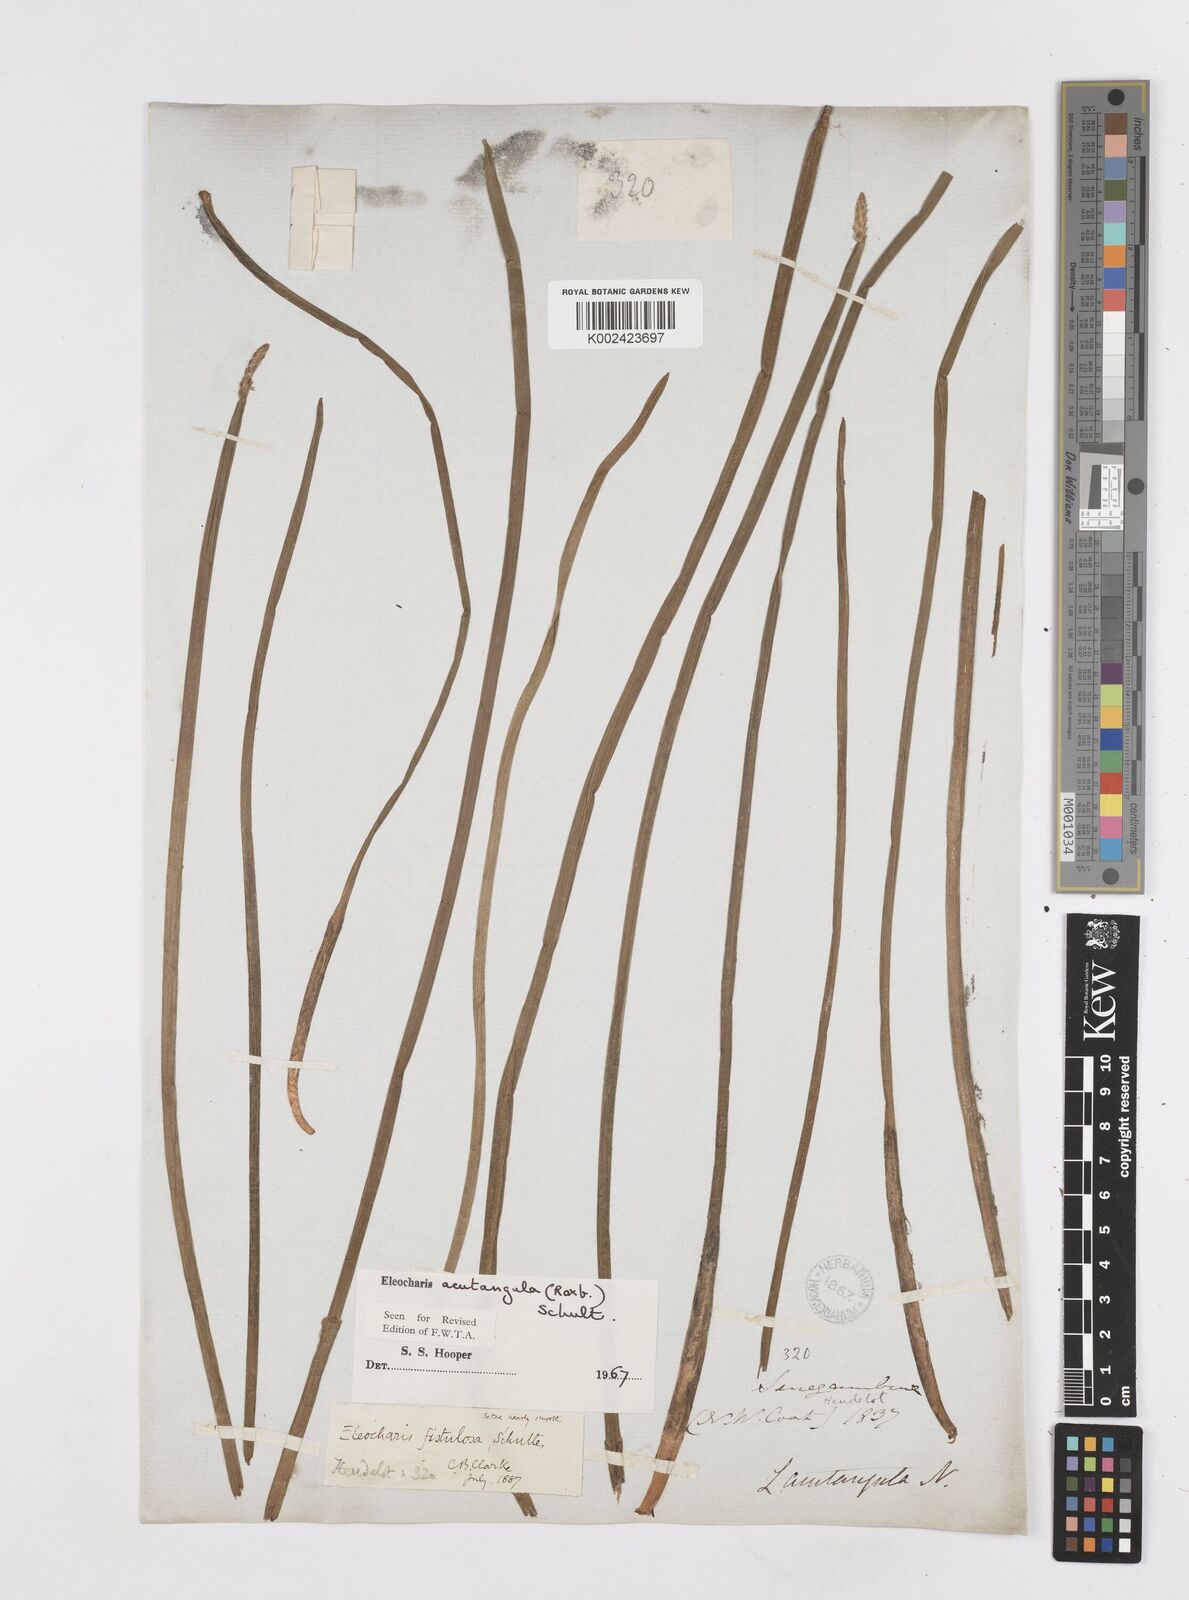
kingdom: Plantae
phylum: Tracheophyta
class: Liliopsida
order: Poales
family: Cyperaceae
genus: Eleocharis
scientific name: Eleocharis acutangula
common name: Acute spikerush
